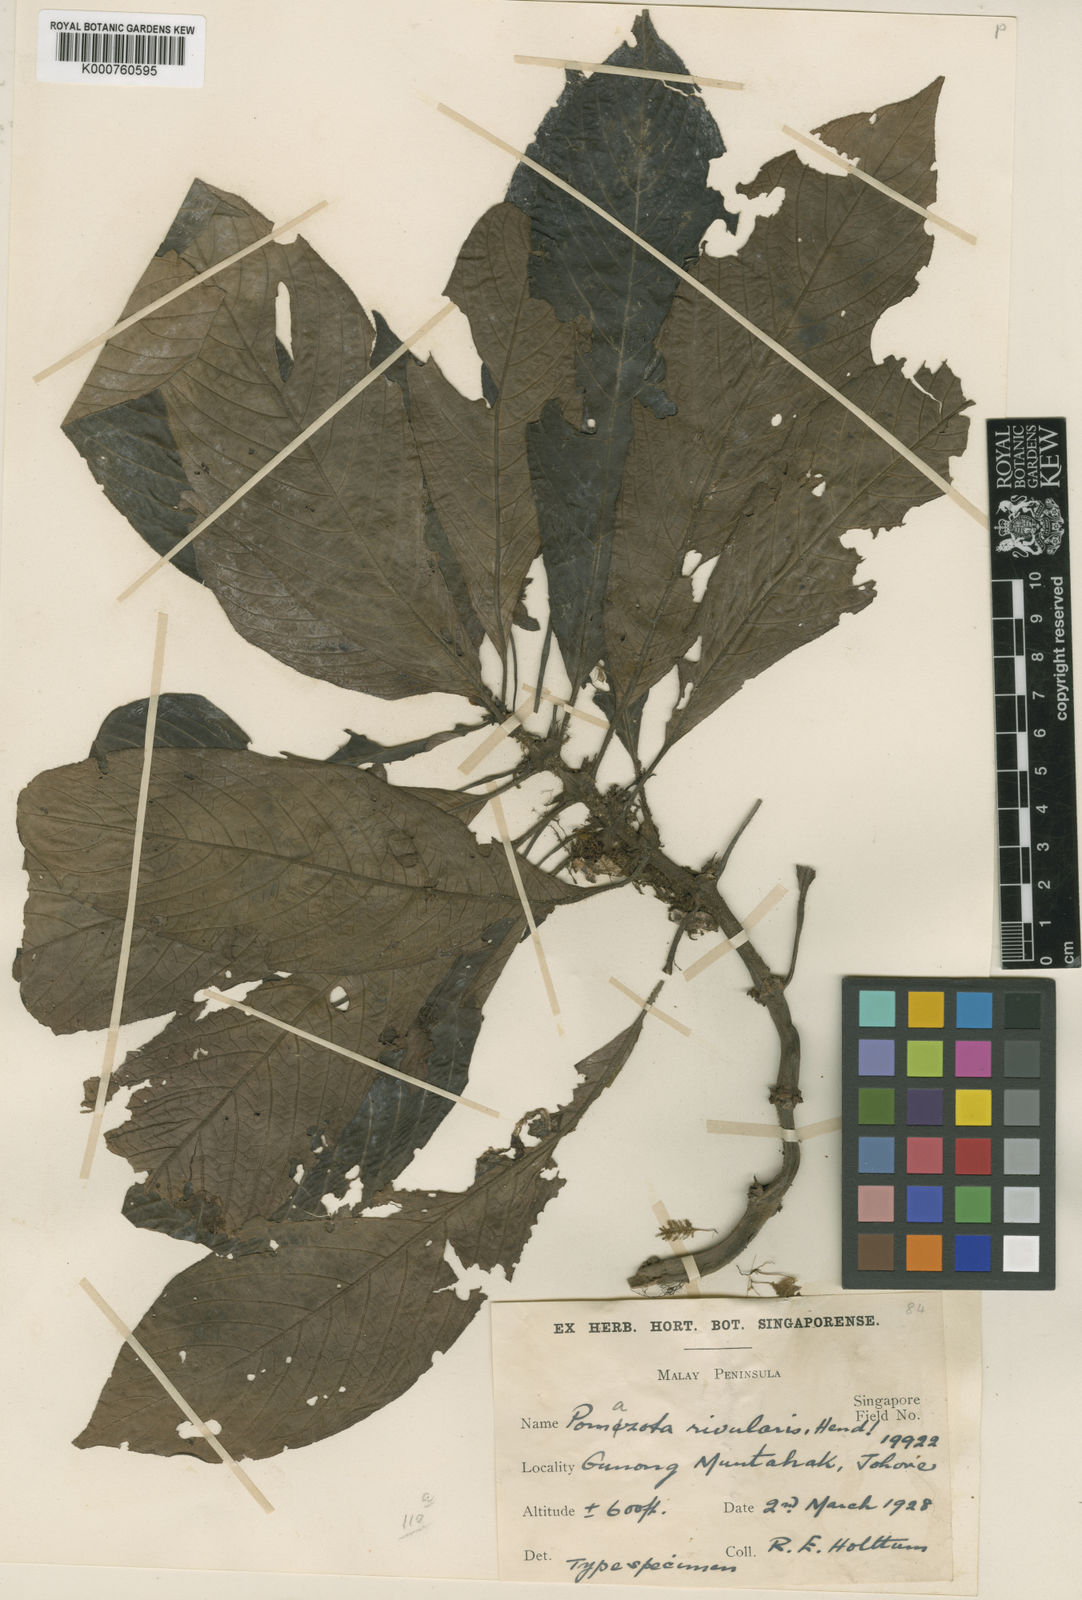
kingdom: Plantae
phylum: Tracheophyta
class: Magnoliopsida
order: Gentianales
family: Rubiaceae
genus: Coptophyllum
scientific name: Coptophyllum bracteatum
